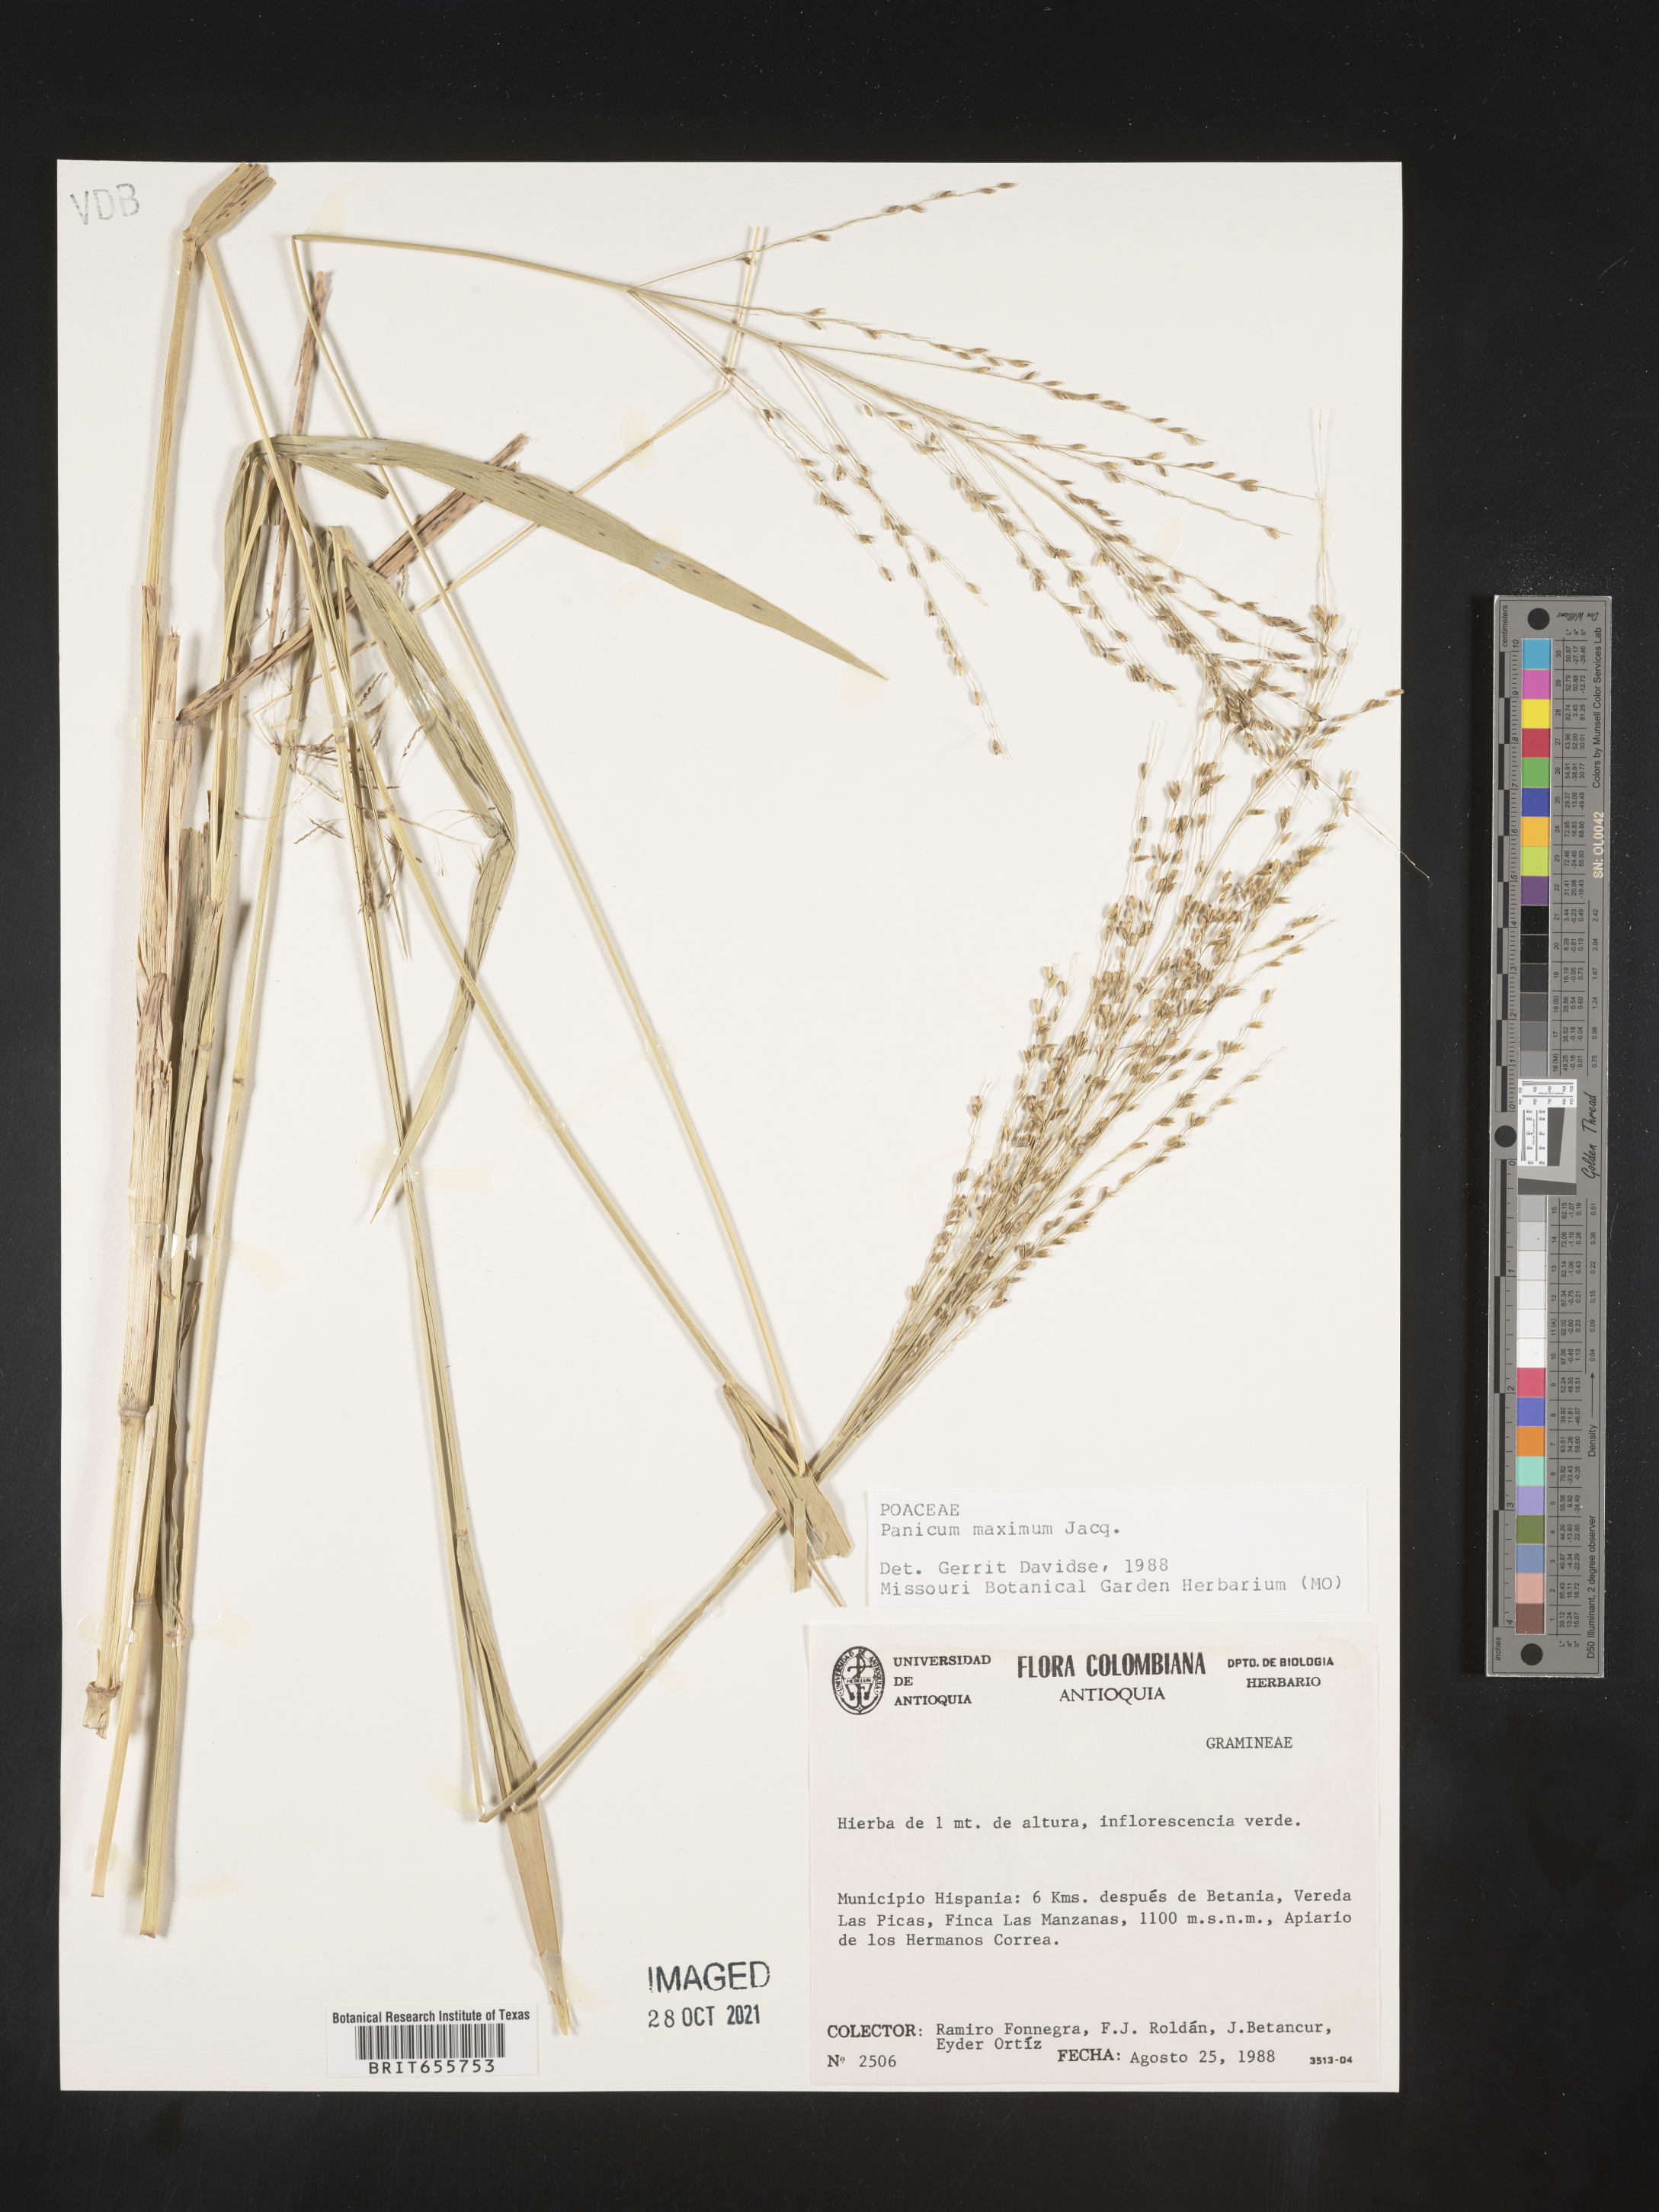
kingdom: Plantae
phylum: Tracheophyta
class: Liliopsida
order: Poales
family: Poaceae
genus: Panicum
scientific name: Panicum
